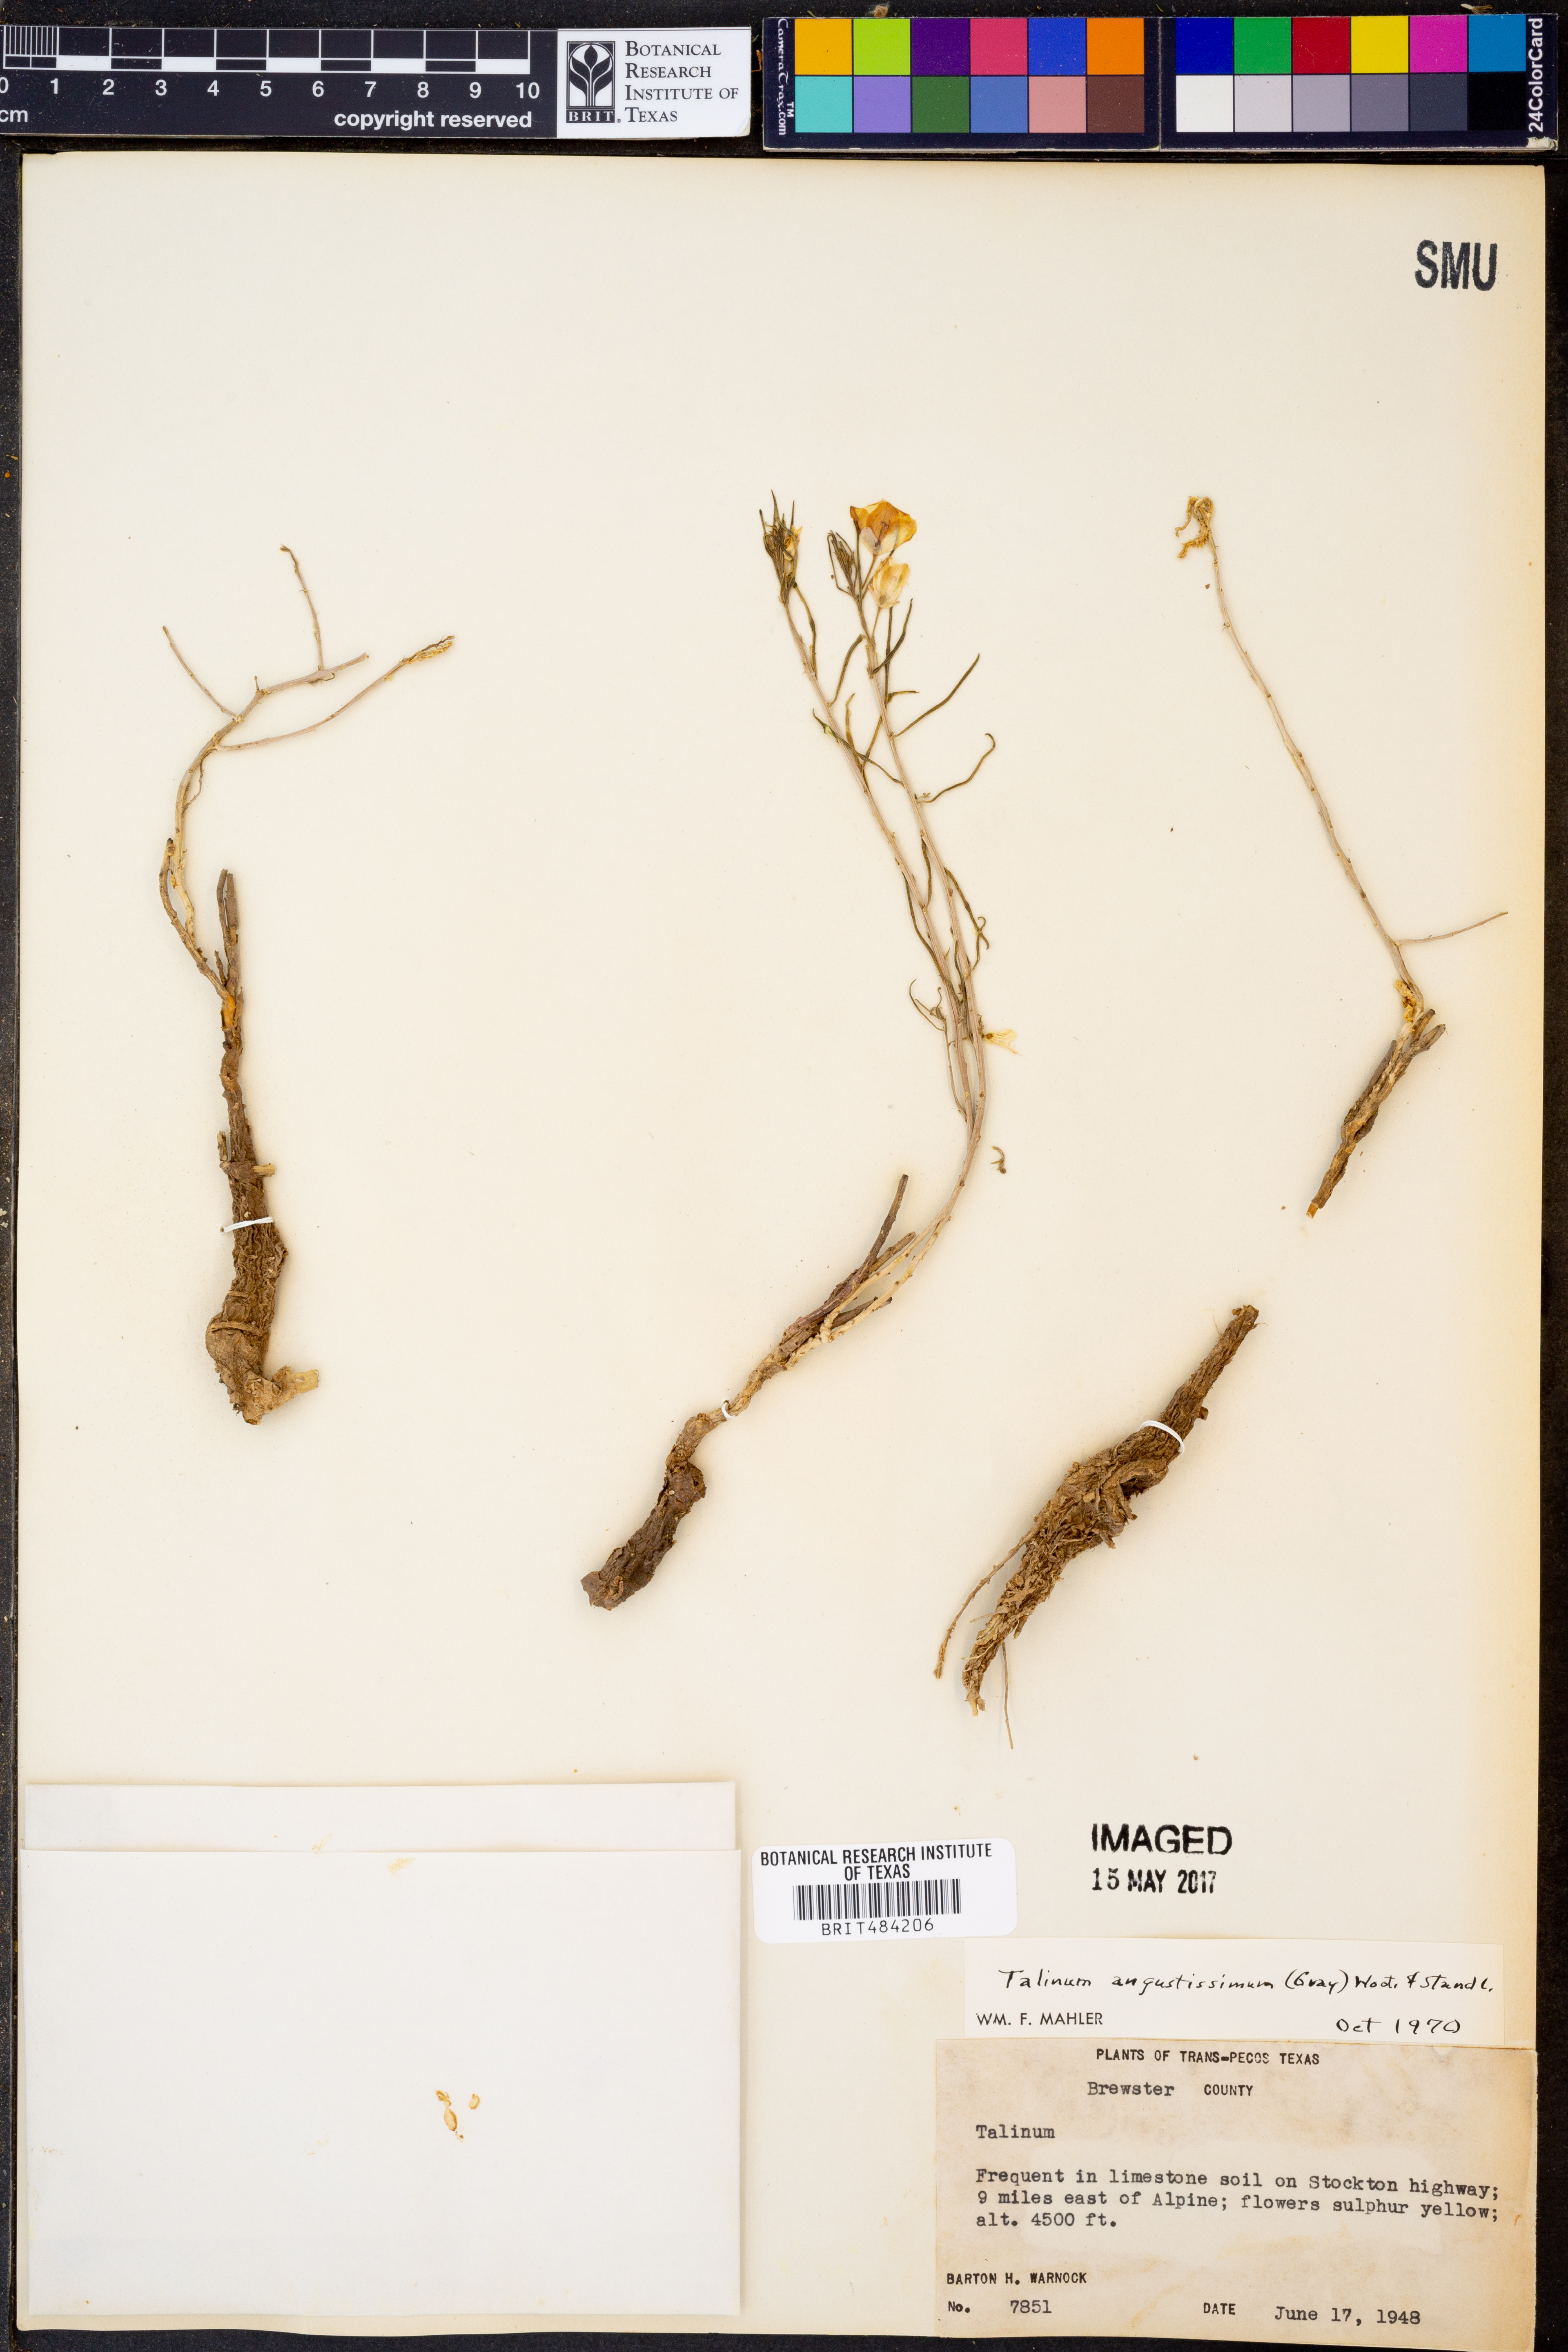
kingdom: Plantae
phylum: Tracheophyta
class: Magnoliopsida
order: Caryophyllales
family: Montiaceae
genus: Phemeranthus
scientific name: Phemeranthus aurantiacus
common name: Orange fameflower
